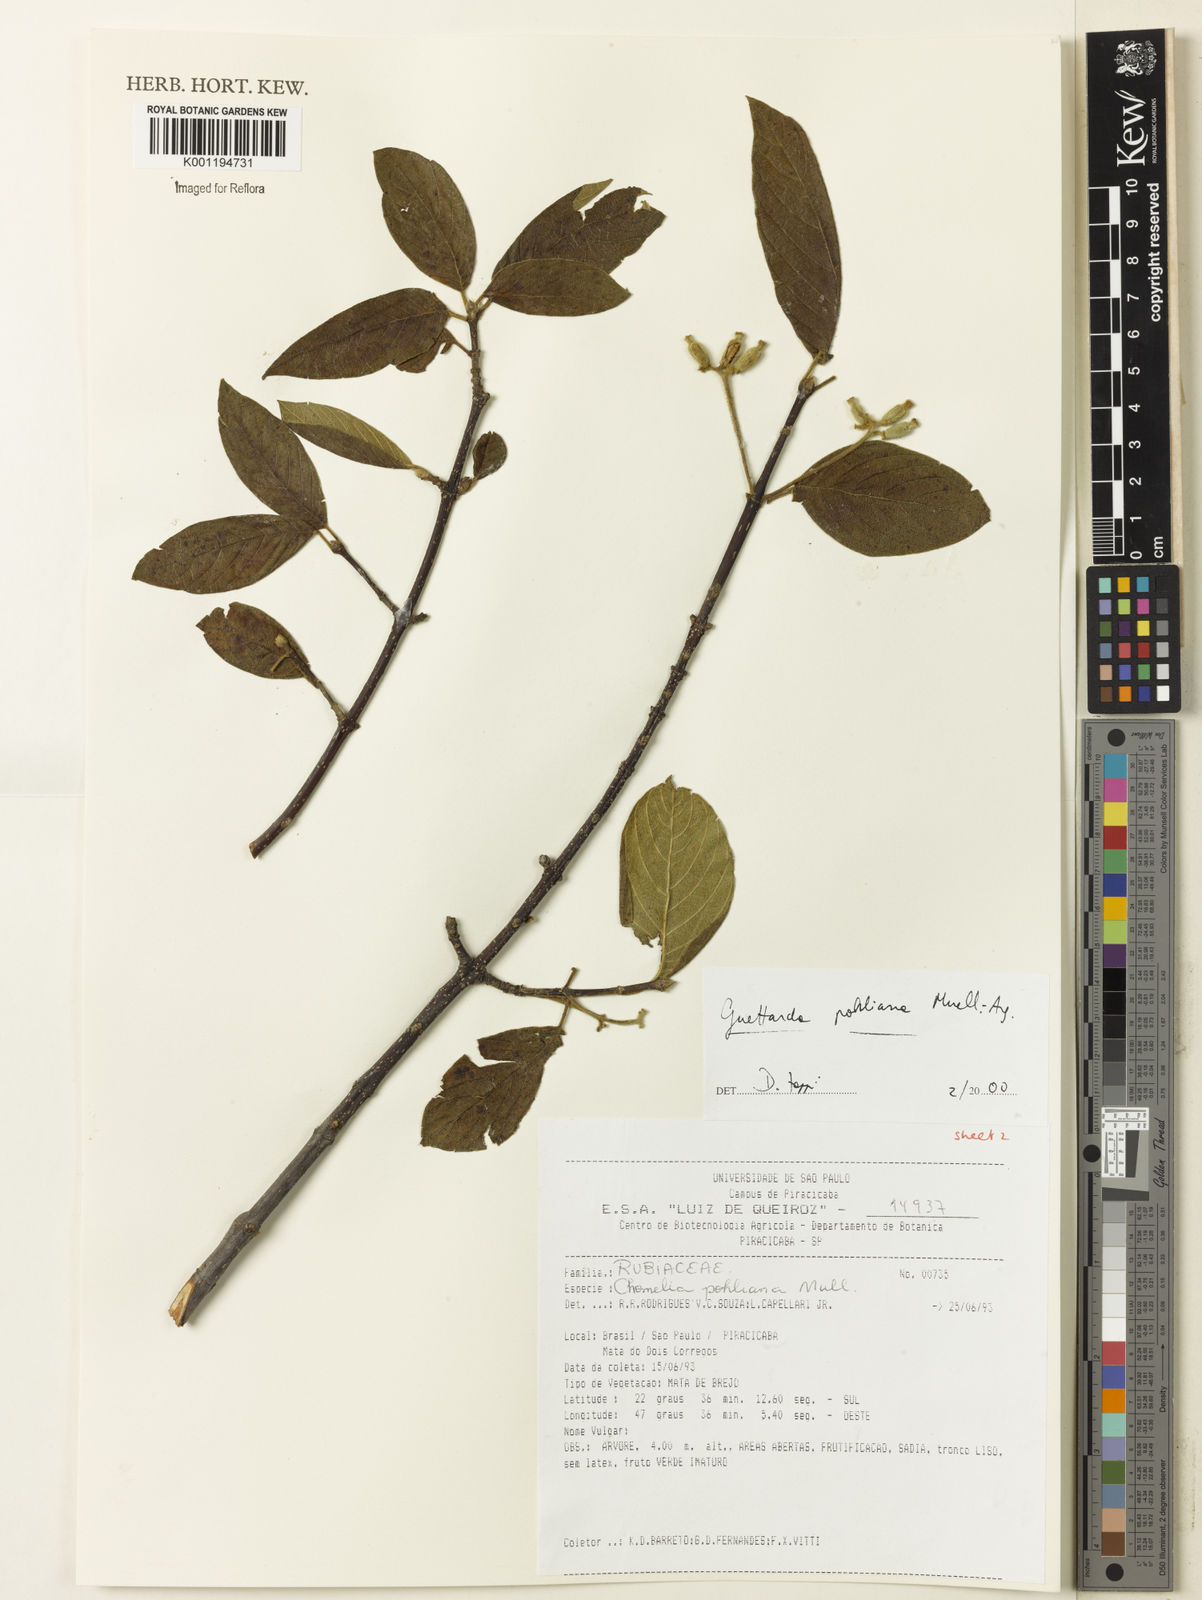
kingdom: Plantae
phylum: Tracheophyta
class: Magnoliopsida
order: Gentianales
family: Rubiaceae
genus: Guettarda
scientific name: Guettarda mattogrossensis
